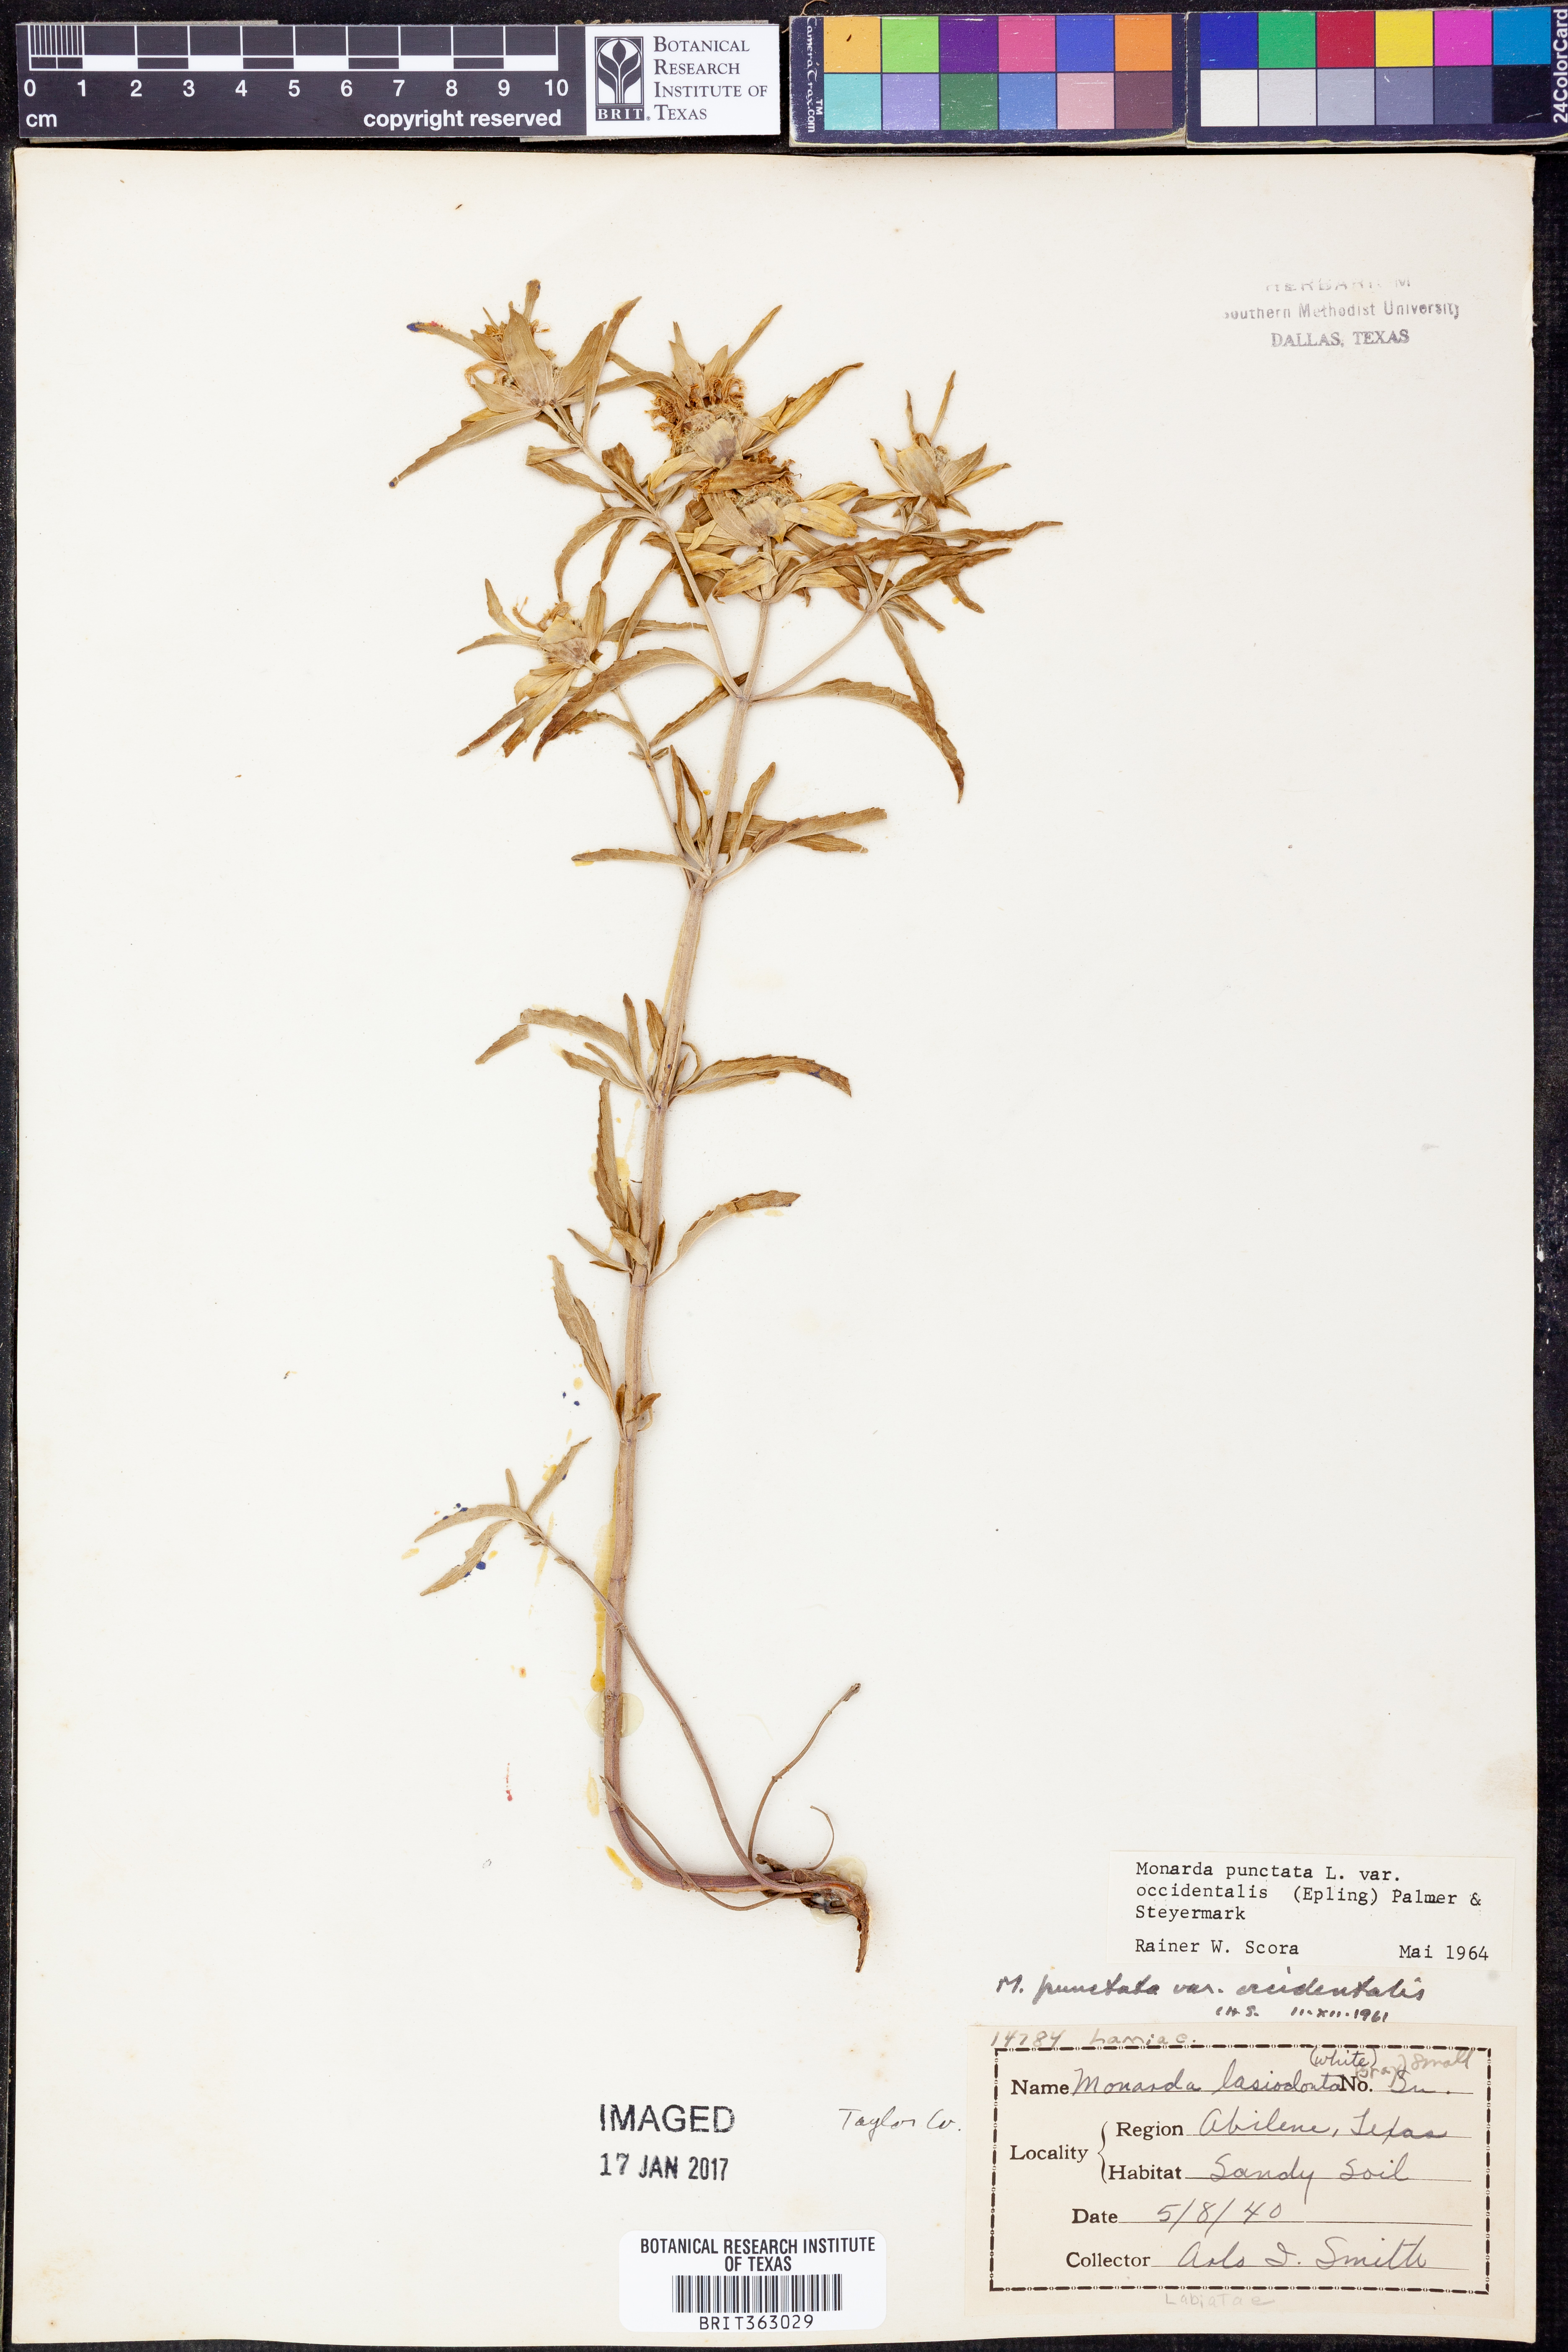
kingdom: Plantae
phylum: Tracheophyta
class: Magnoliopsida
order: Lamiales
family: Lamiaceae
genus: Monarda
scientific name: Monarda punctata
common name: Dotted monarda
